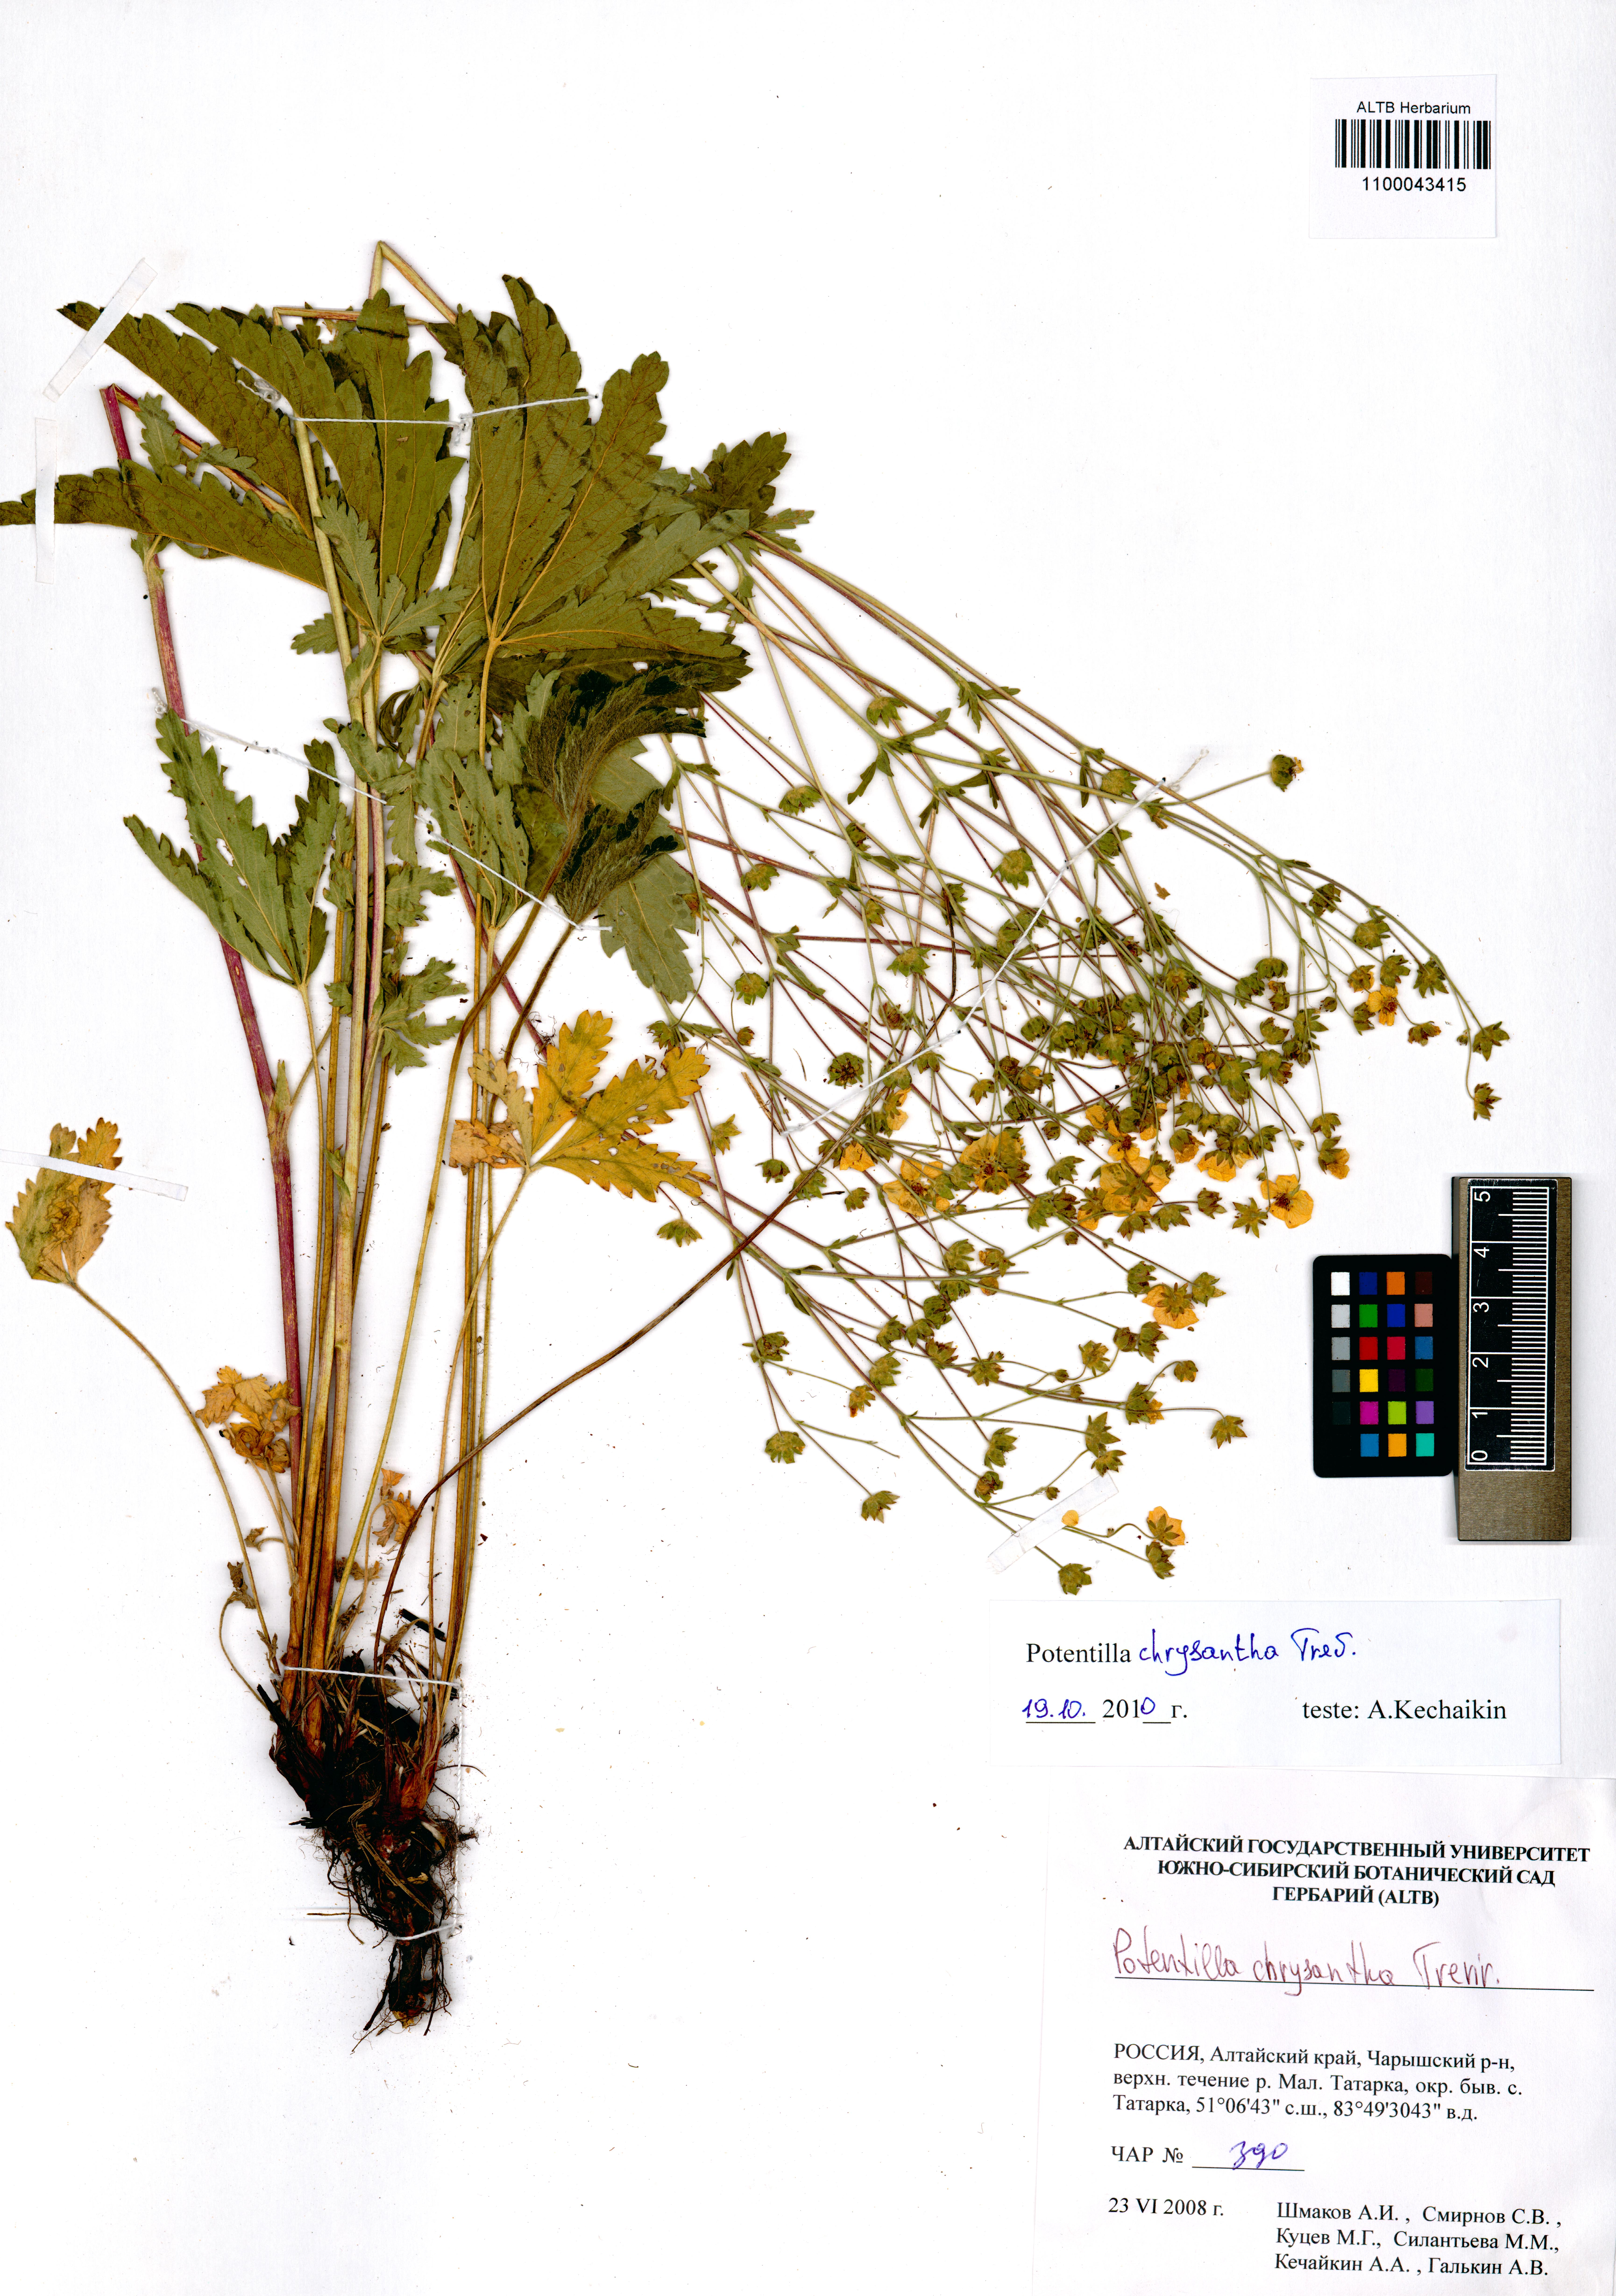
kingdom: Plantae
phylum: Tracheophyta
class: Magnoliopsida
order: Rosales
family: Rosaceae
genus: Potentilla
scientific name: Potentilla chrysantha
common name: Thuringian cinquefoil
